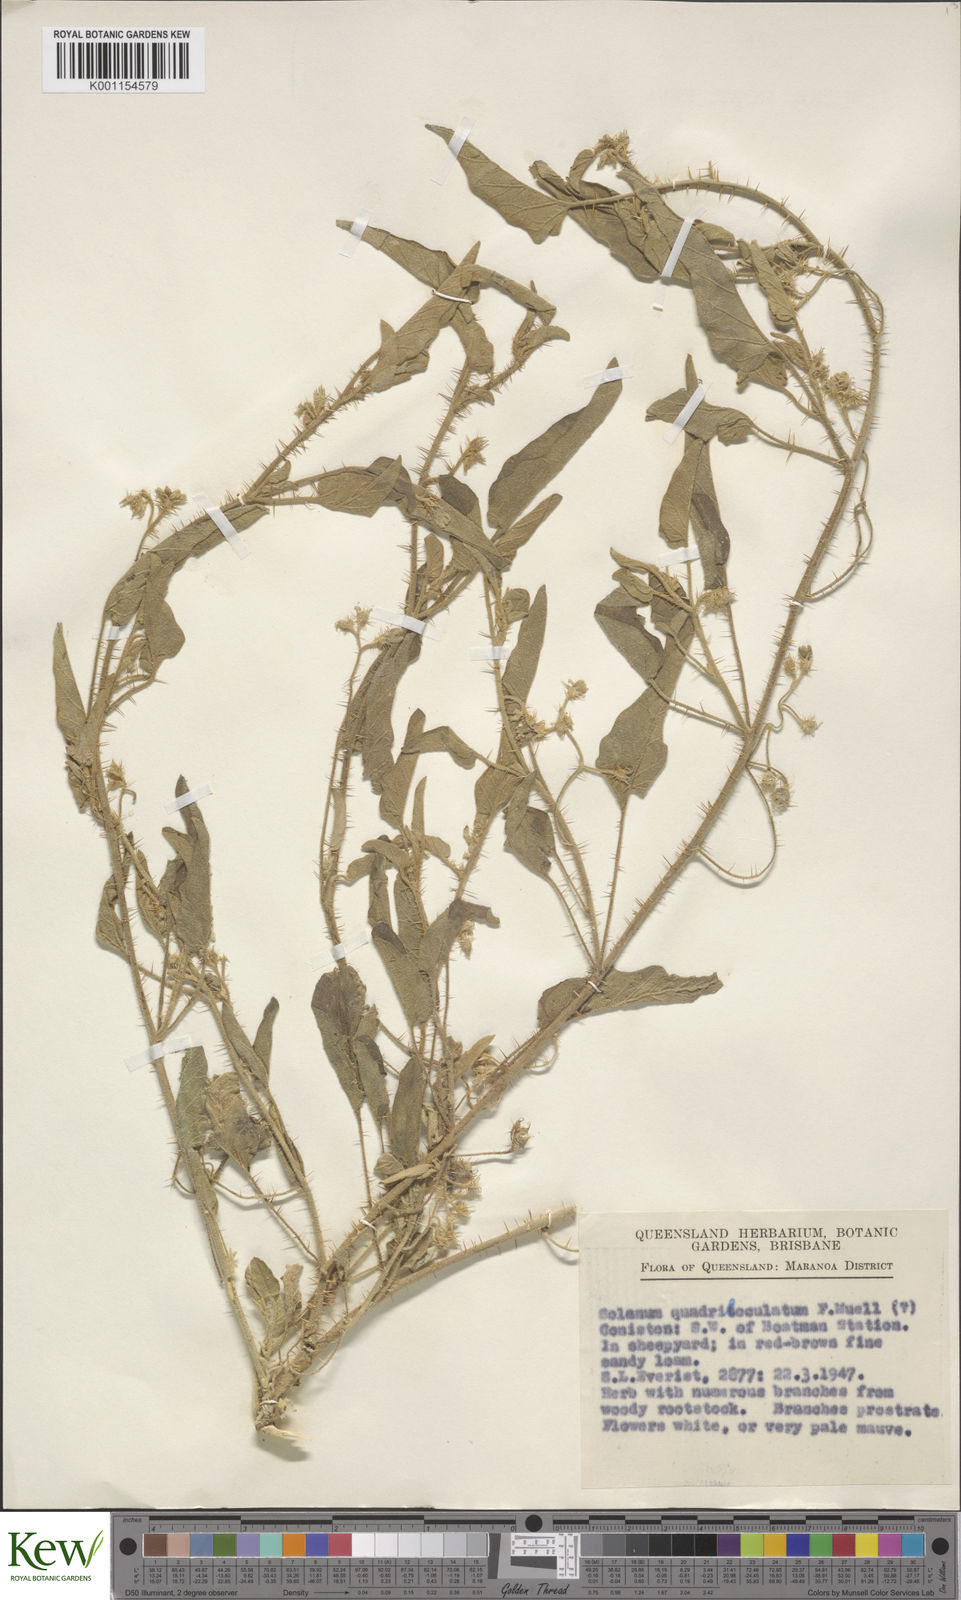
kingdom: Plantae
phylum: Tracheophyta
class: Magnoliopsida
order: Solanales
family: Solanaceae
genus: Solanum
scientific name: Solanum ellipticum
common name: Potato-bush
